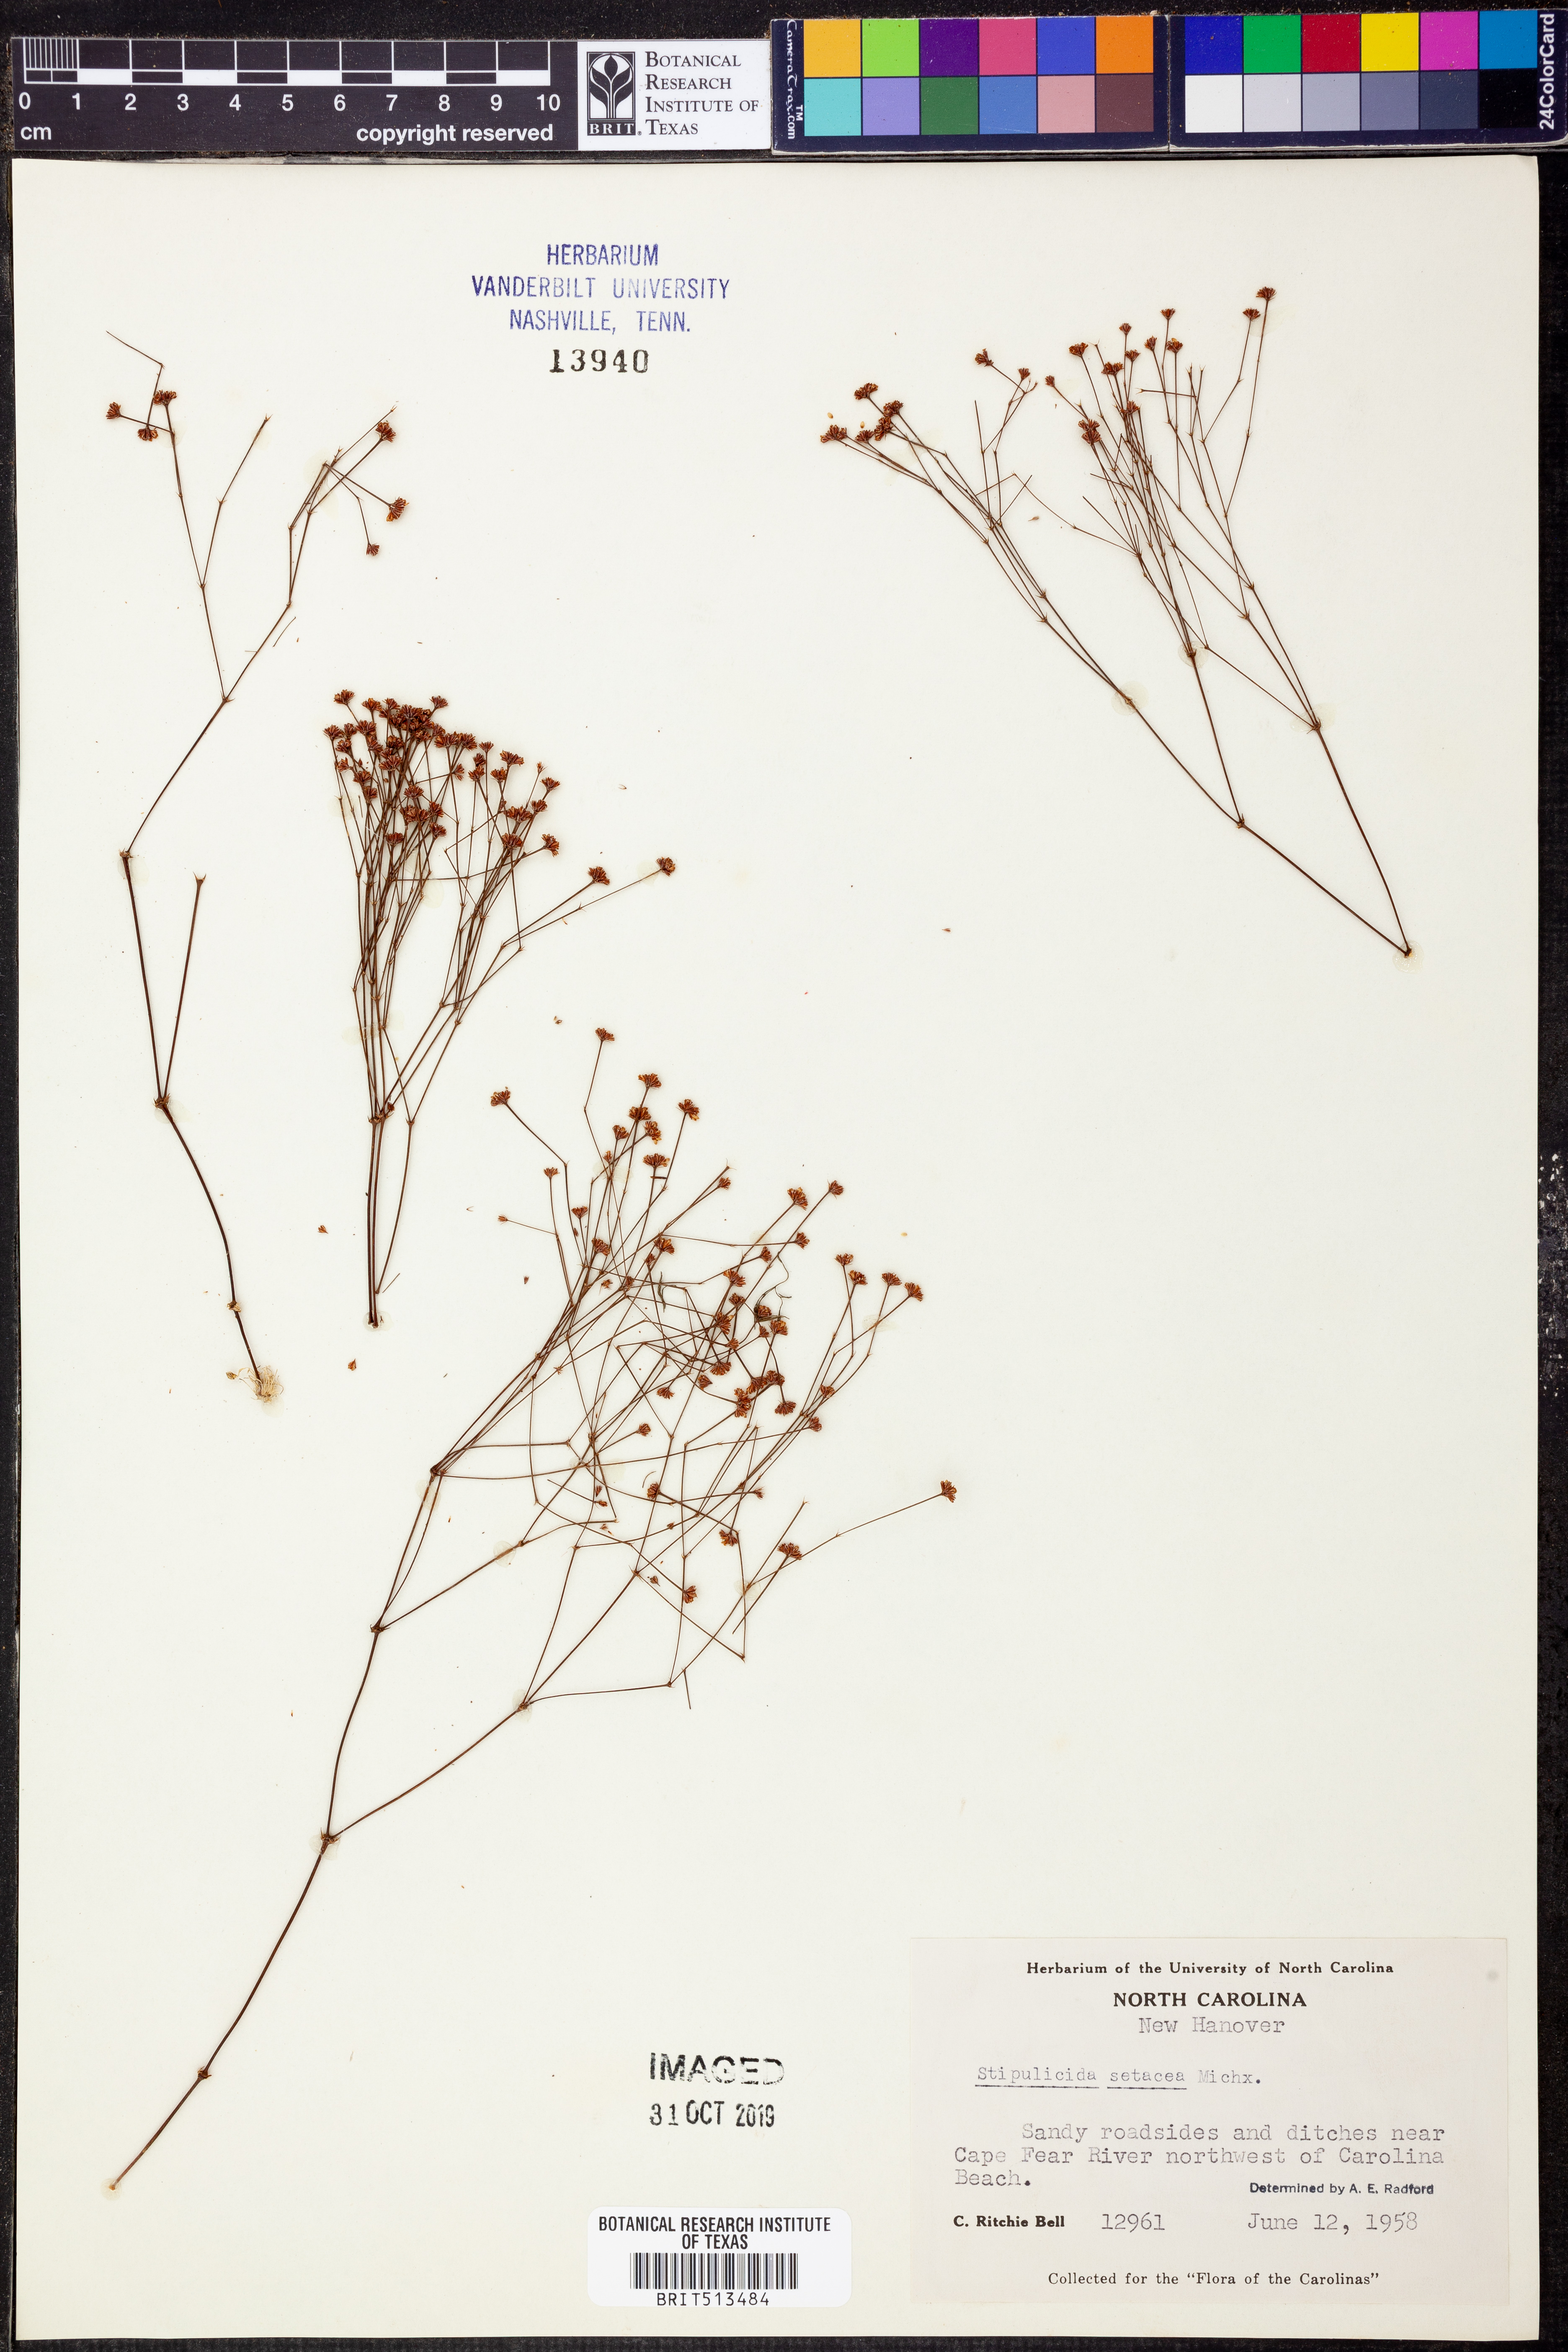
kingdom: Plantae
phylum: Tracheophyta
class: Magnoliopsida
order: Caryophyllales
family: Caryophyllaceae
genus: Stipulicida
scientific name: Stipulicida setacea
